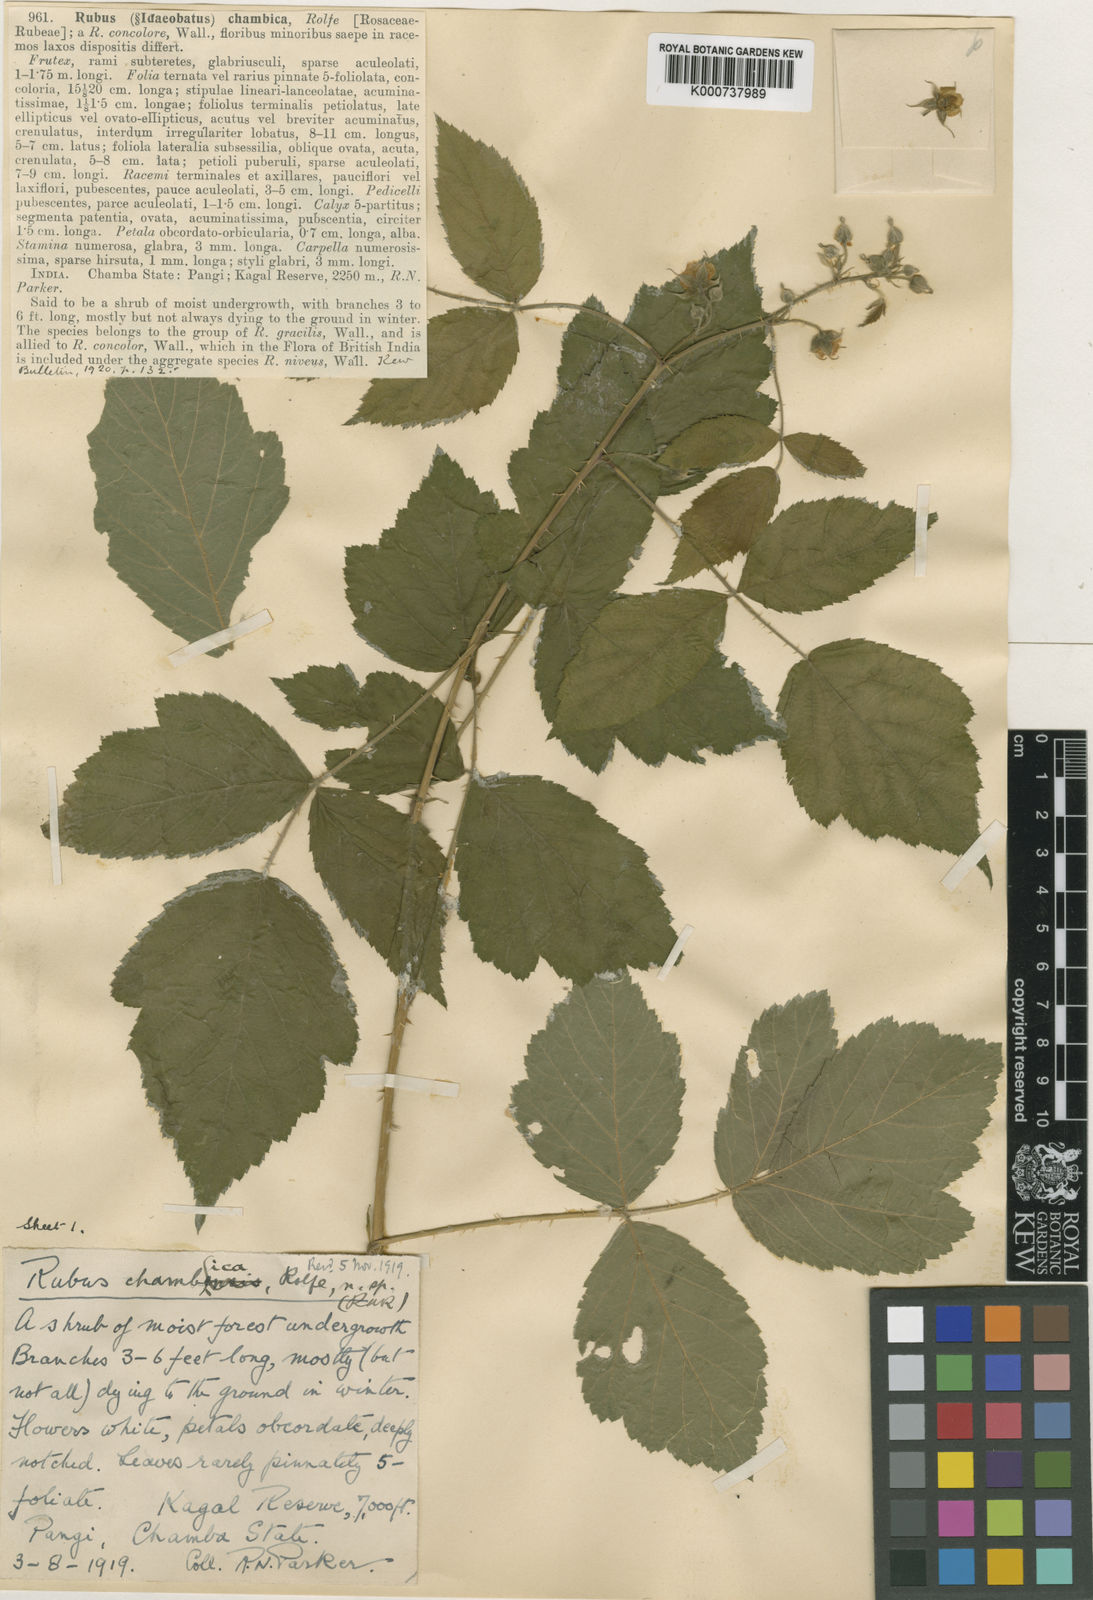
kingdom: Plantae
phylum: Tracheophyta
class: Magnoliopsida
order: Rosales
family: Rosaceae
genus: Rubus
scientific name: Rubus chambicus
